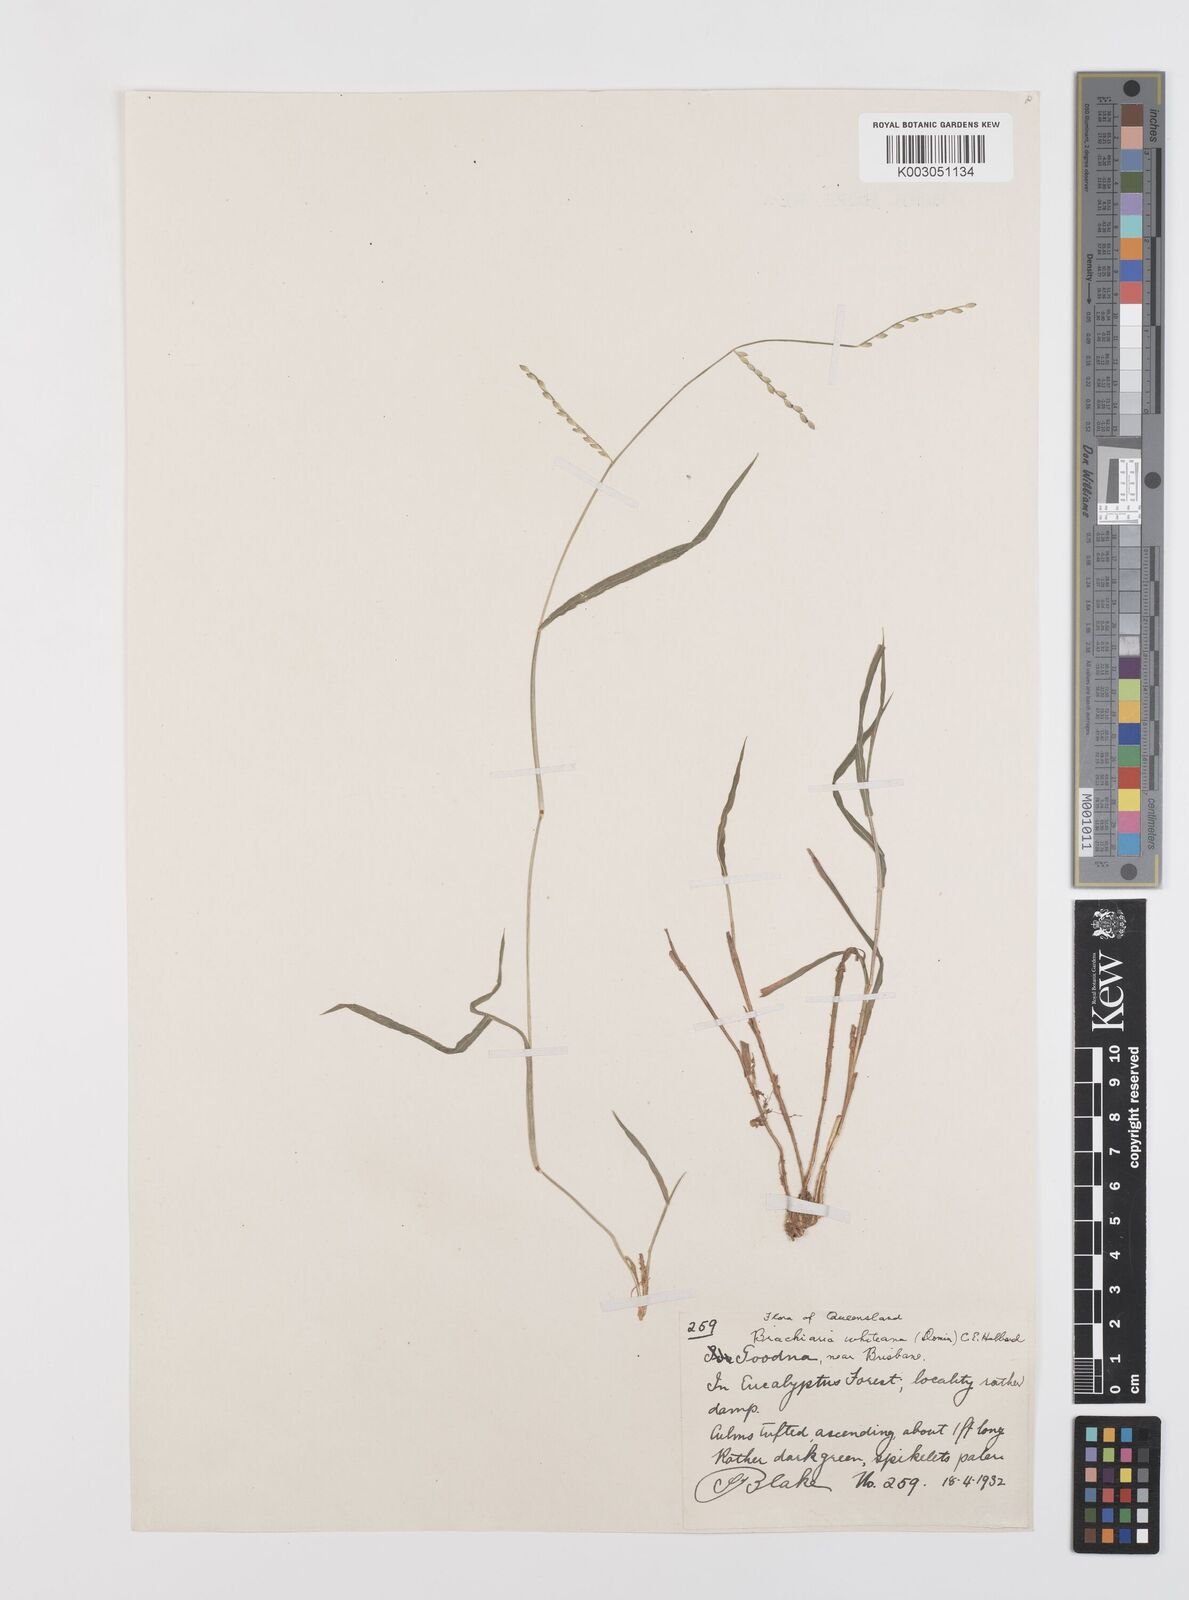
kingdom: Plantae
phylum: Tracheophyta
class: Liliopsida
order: Poales
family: Poaceae
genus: Urochloa
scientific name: Urochloa whiteana
